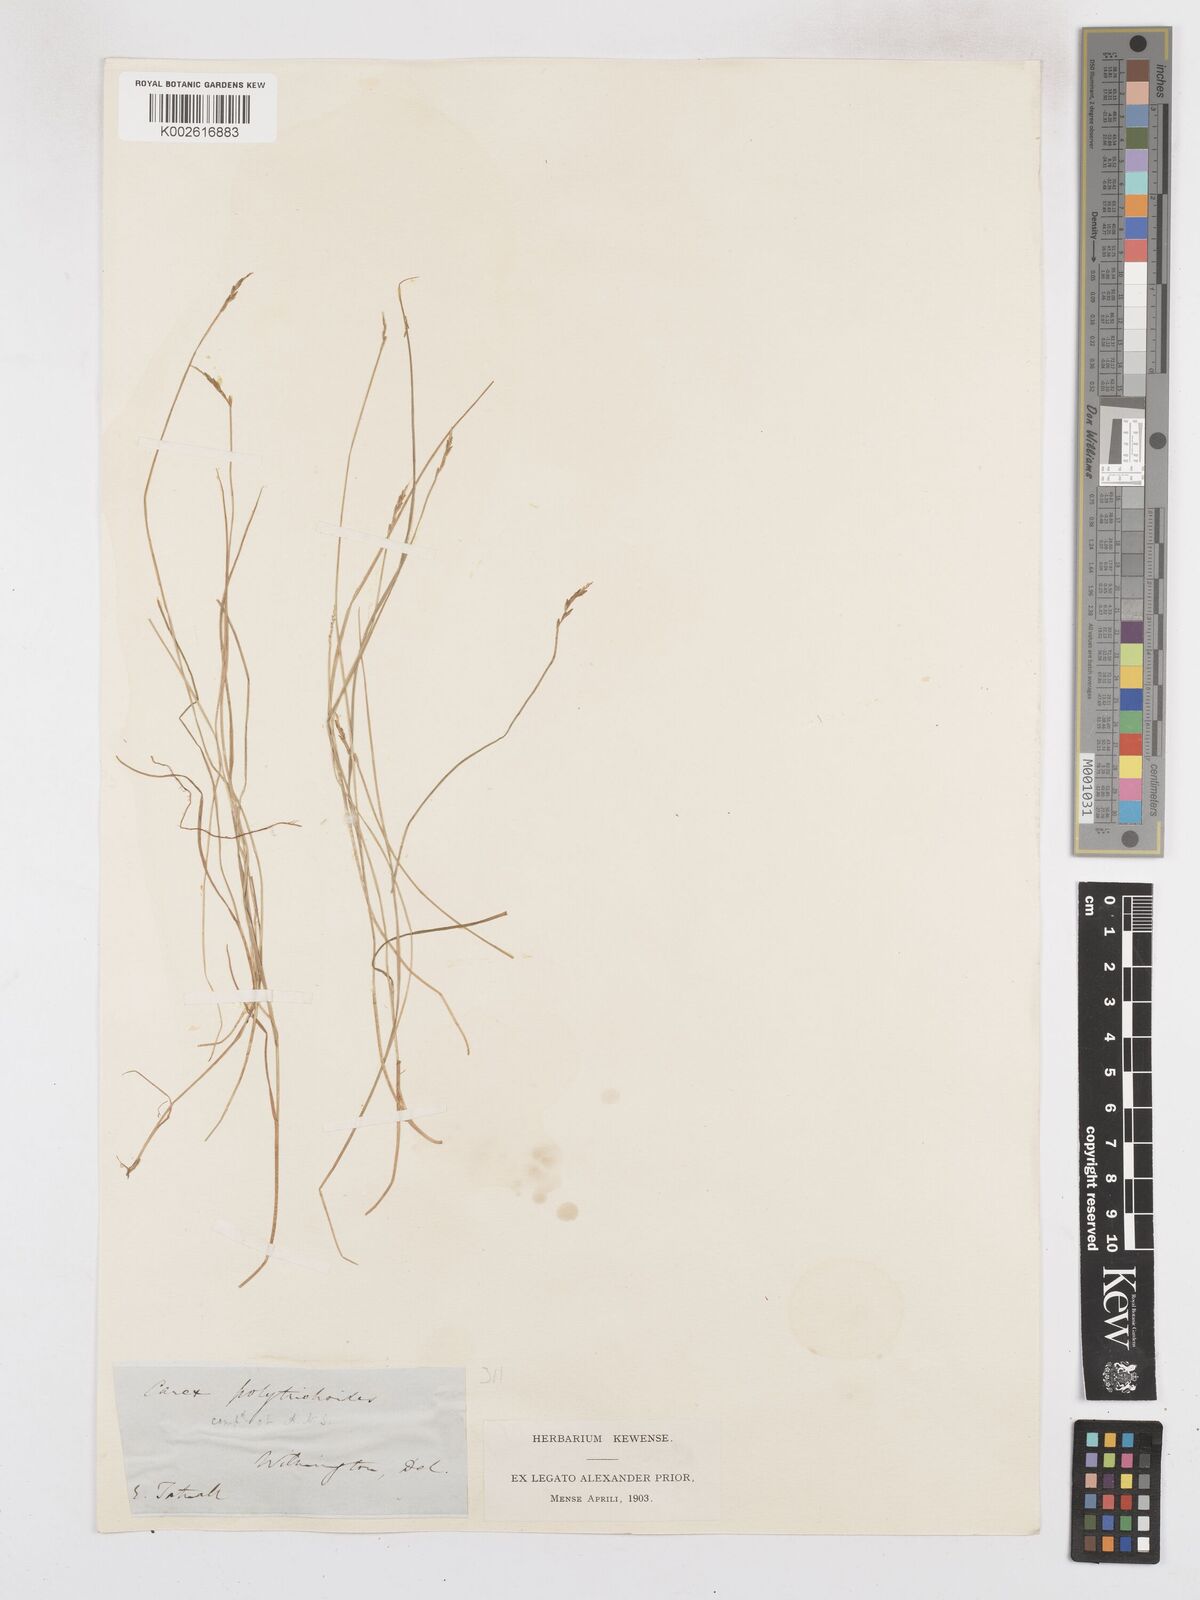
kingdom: Plantae
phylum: Tracheophyta
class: Liliopsida
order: Poales
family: Cyperaceae
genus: Carex
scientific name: Carex leptalea
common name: Bristly-stalked sedge
